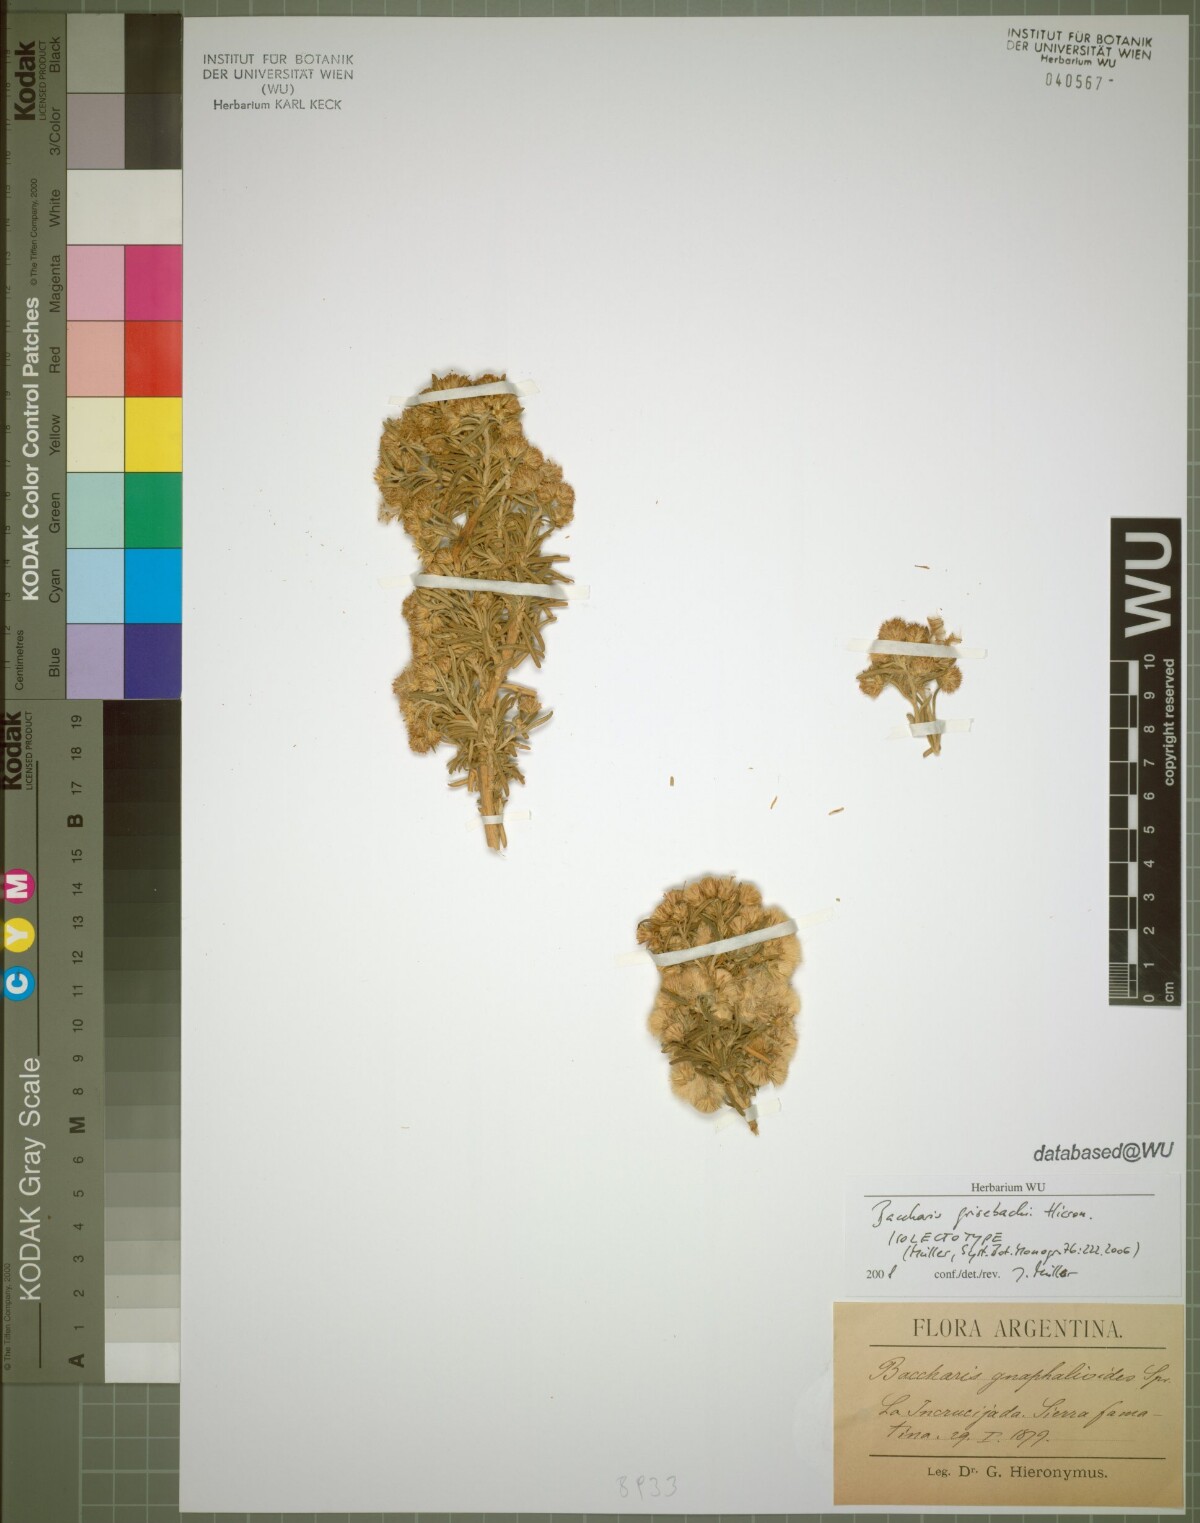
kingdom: Plantae
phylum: Tracheophyta
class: Magnoliopsida
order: Asterales
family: Asteraceae
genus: Baccharis
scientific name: Baccharis grisebachii
